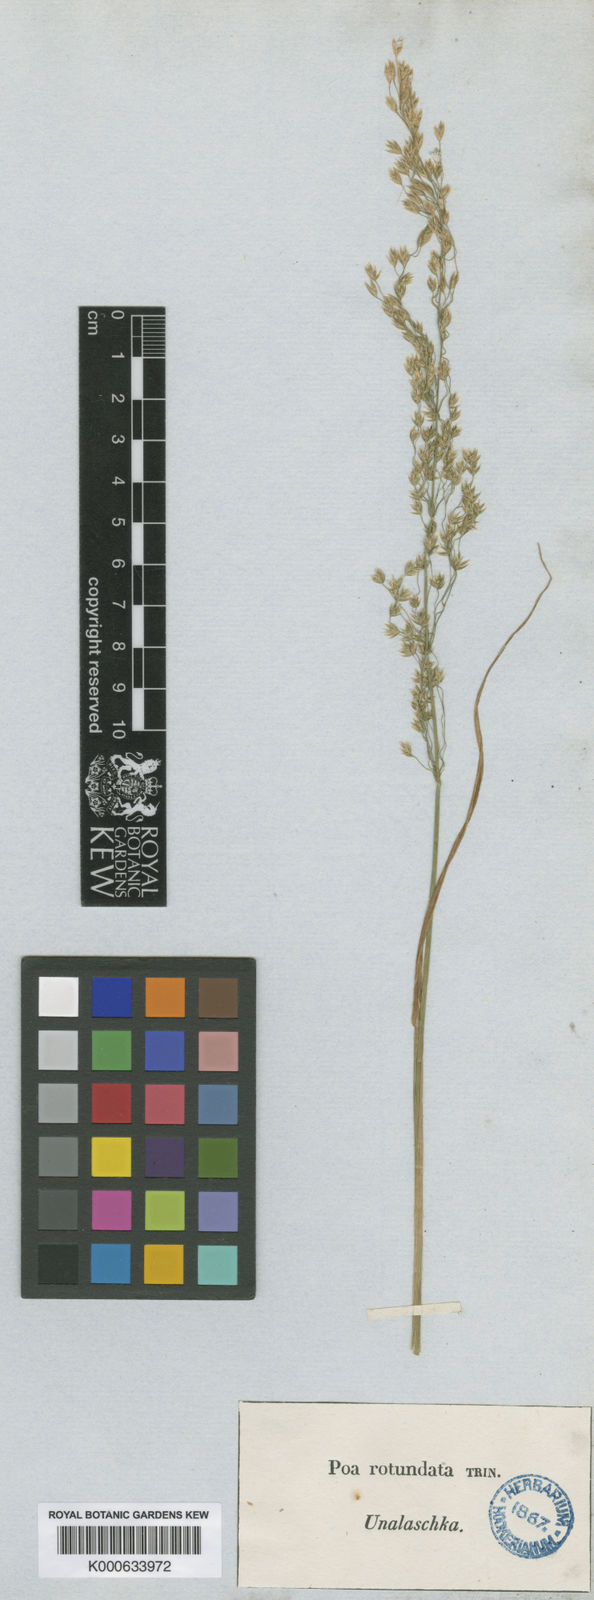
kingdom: Plantae
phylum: Tracheophyta
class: Magnoliopsida
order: Oxalidales
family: Connaraceae
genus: Connarus
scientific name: Connarus suberosus
